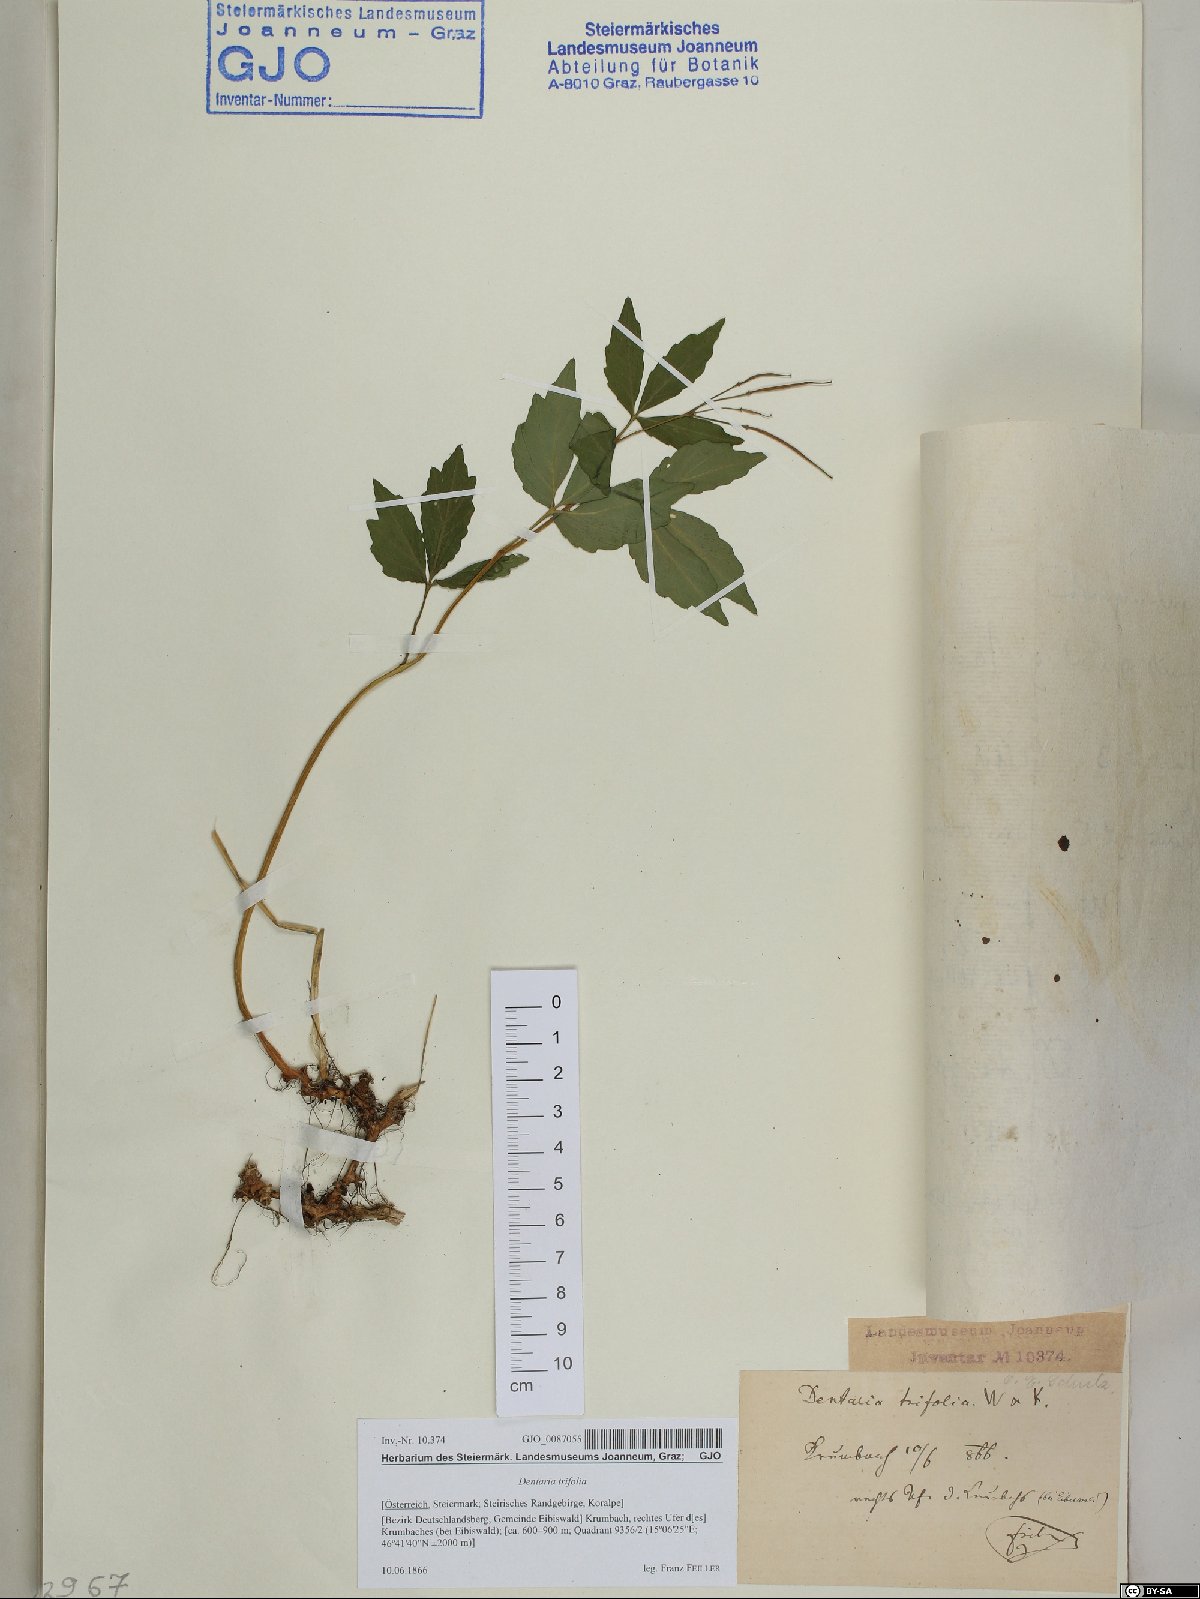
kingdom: Plantae
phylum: Tracheophyta
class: Magnoliopsida
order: Brassicales
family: Brassicaceae
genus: Cardamine
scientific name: Cardamine waldsteinii
